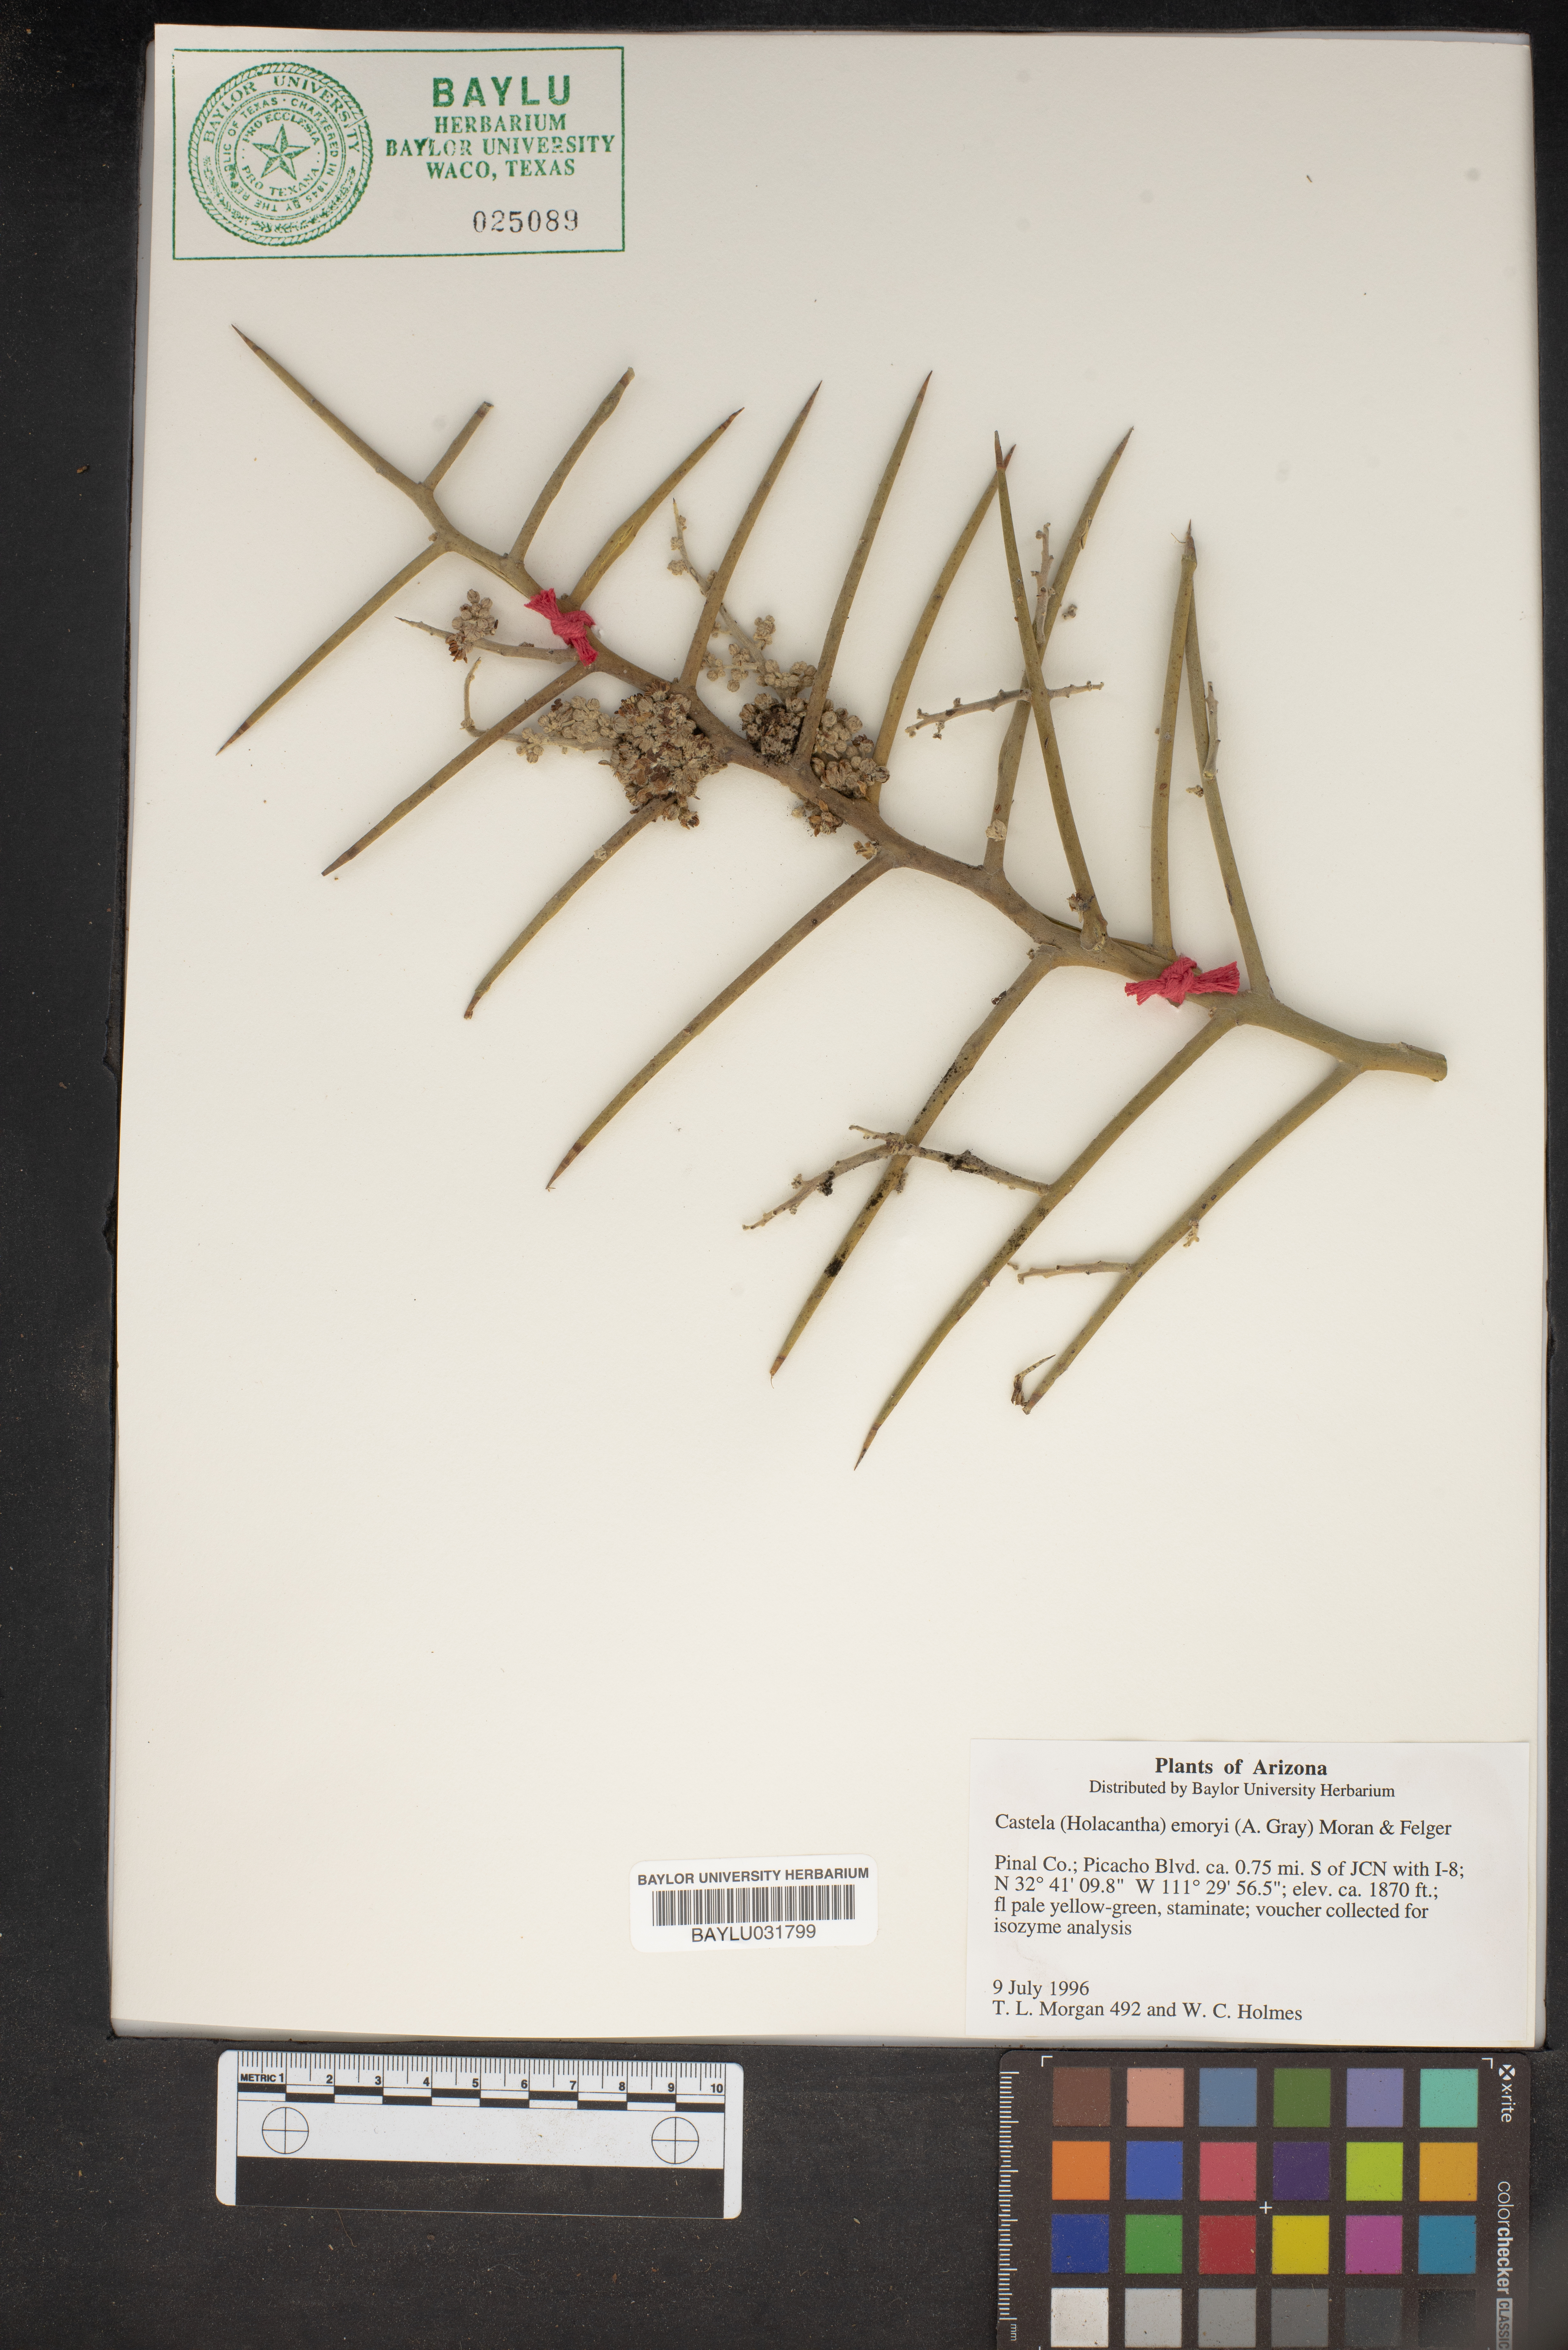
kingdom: Plantae
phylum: Tracheophyta
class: Magnoliopsida
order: Sapindales
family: Simaroubaceae
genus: Holacantha
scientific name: Holacantha emoryi
